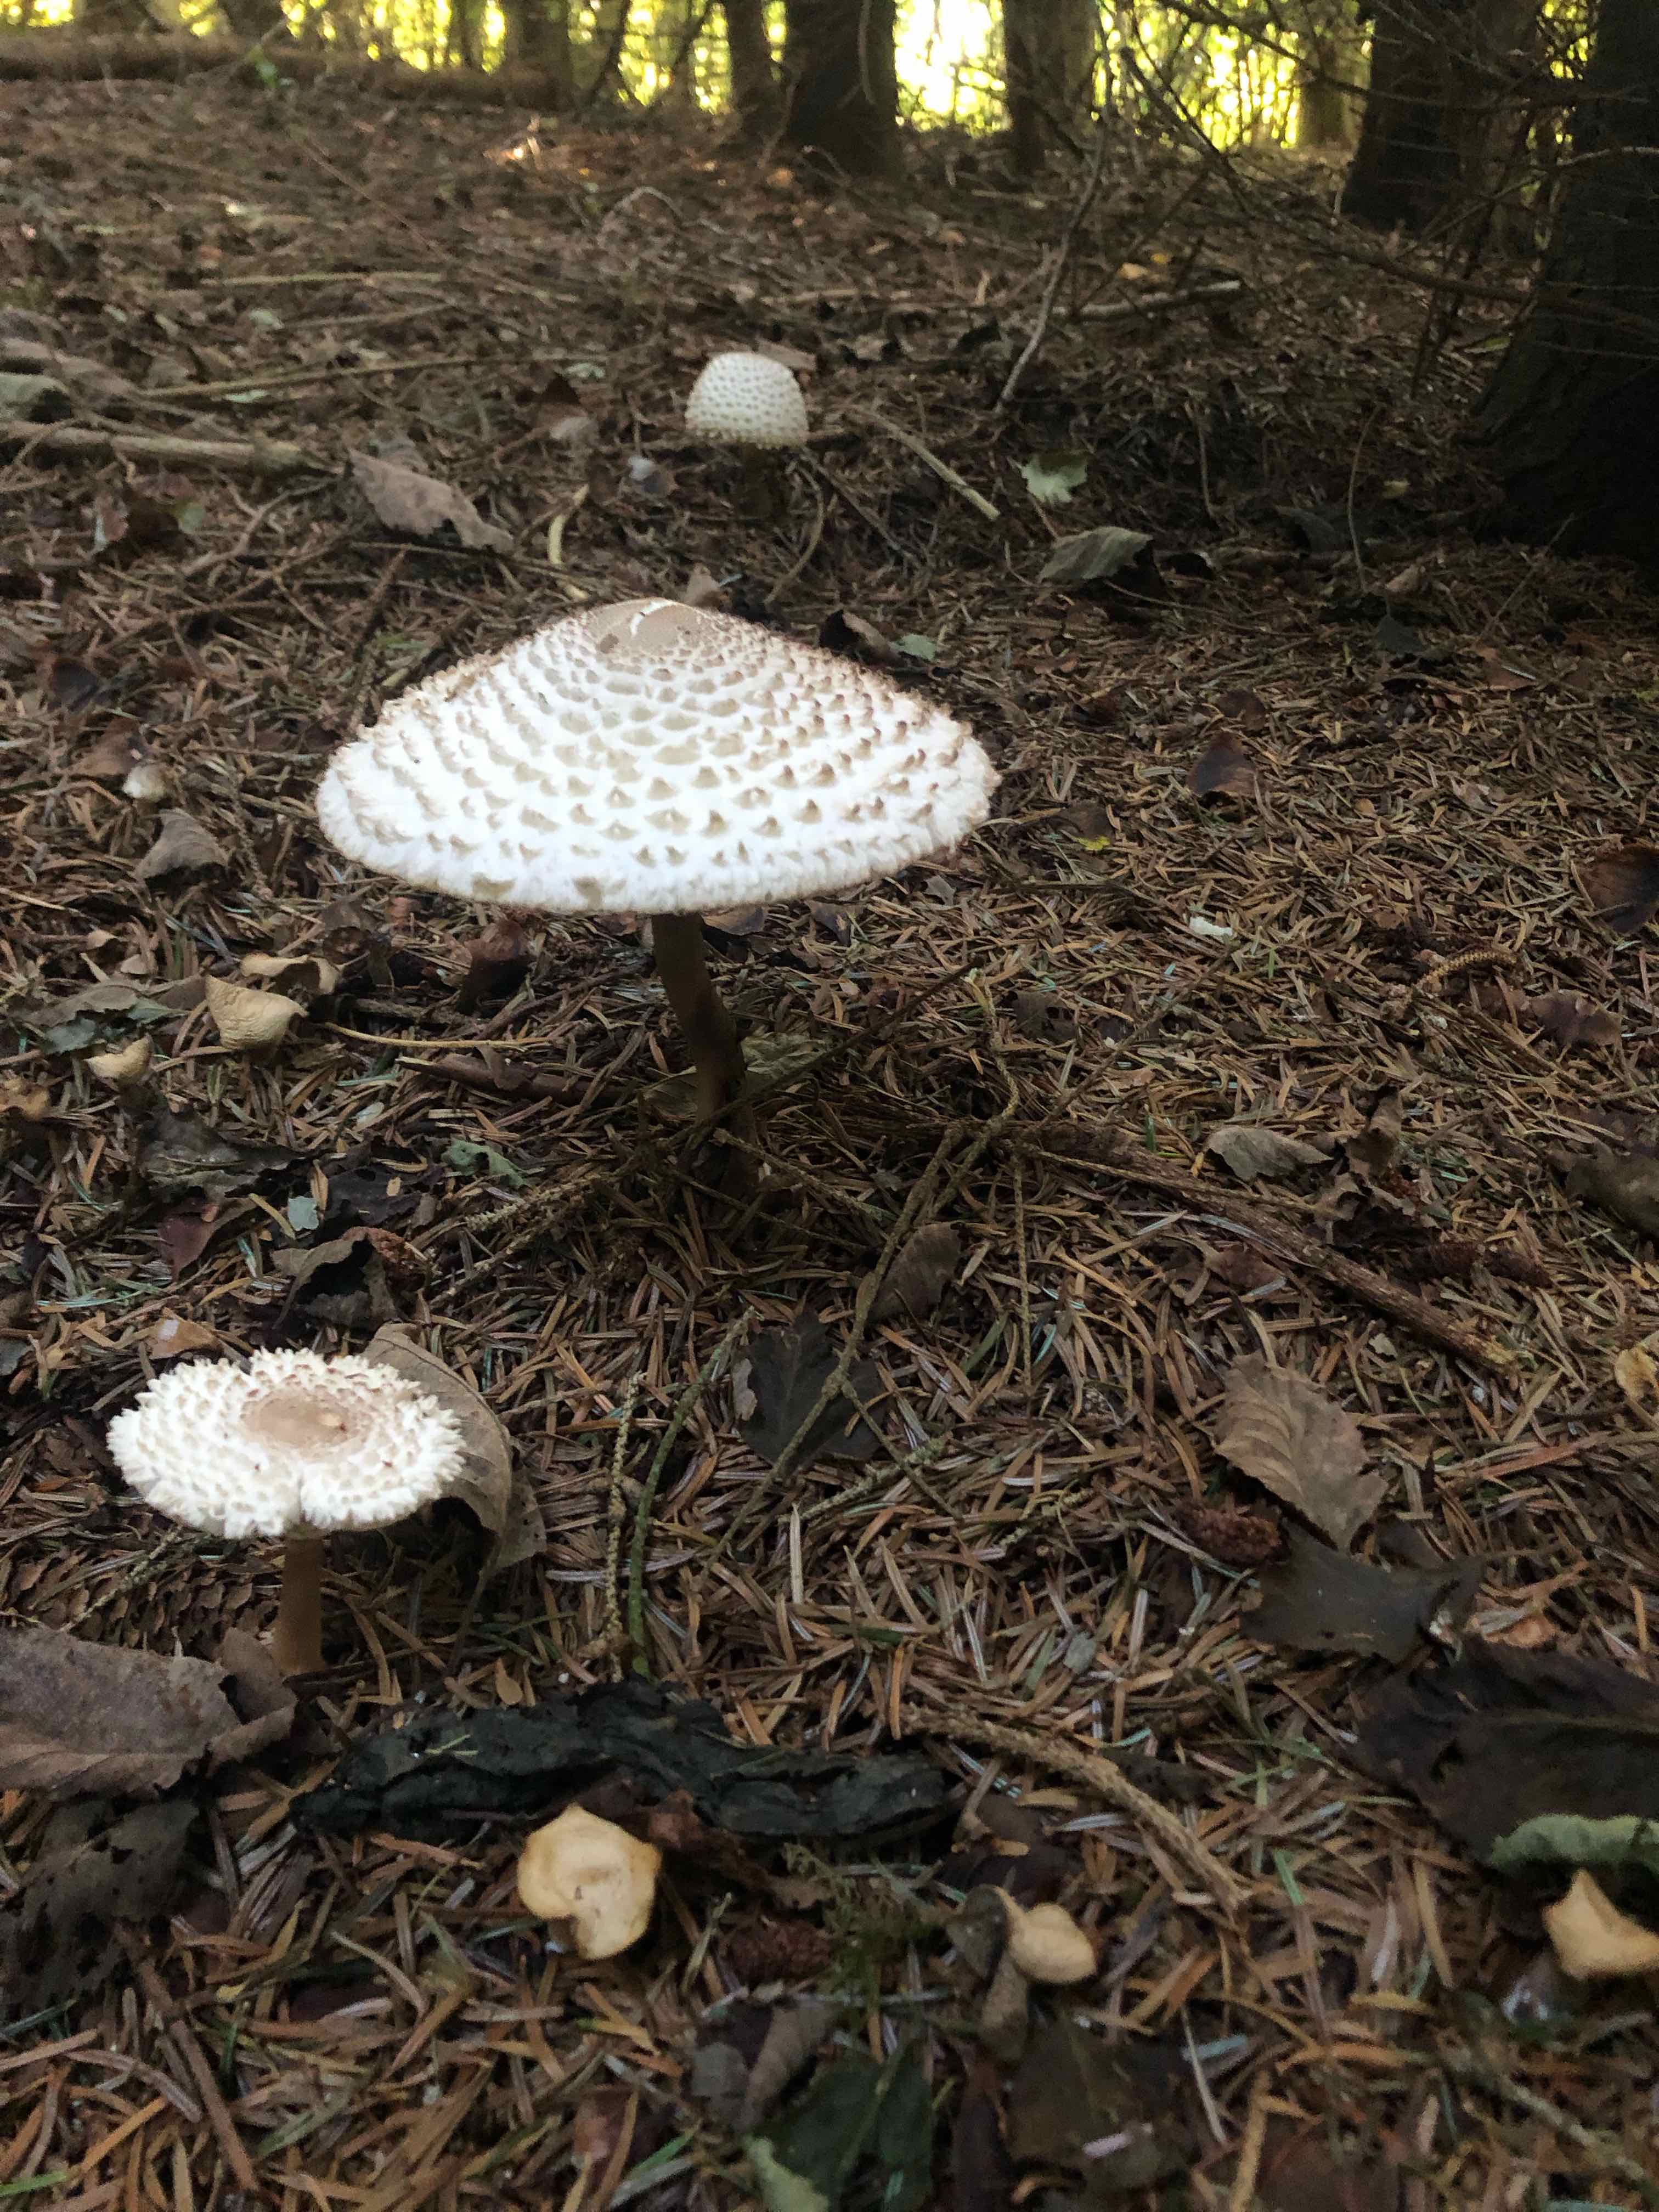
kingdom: Fungi
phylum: Basidiomycota
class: Agaricomycetes
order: Agaricales
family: Agaricaceae
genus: Leucoagaricus
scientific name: Leucoagaricus nympharum
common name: gran-silkehat
